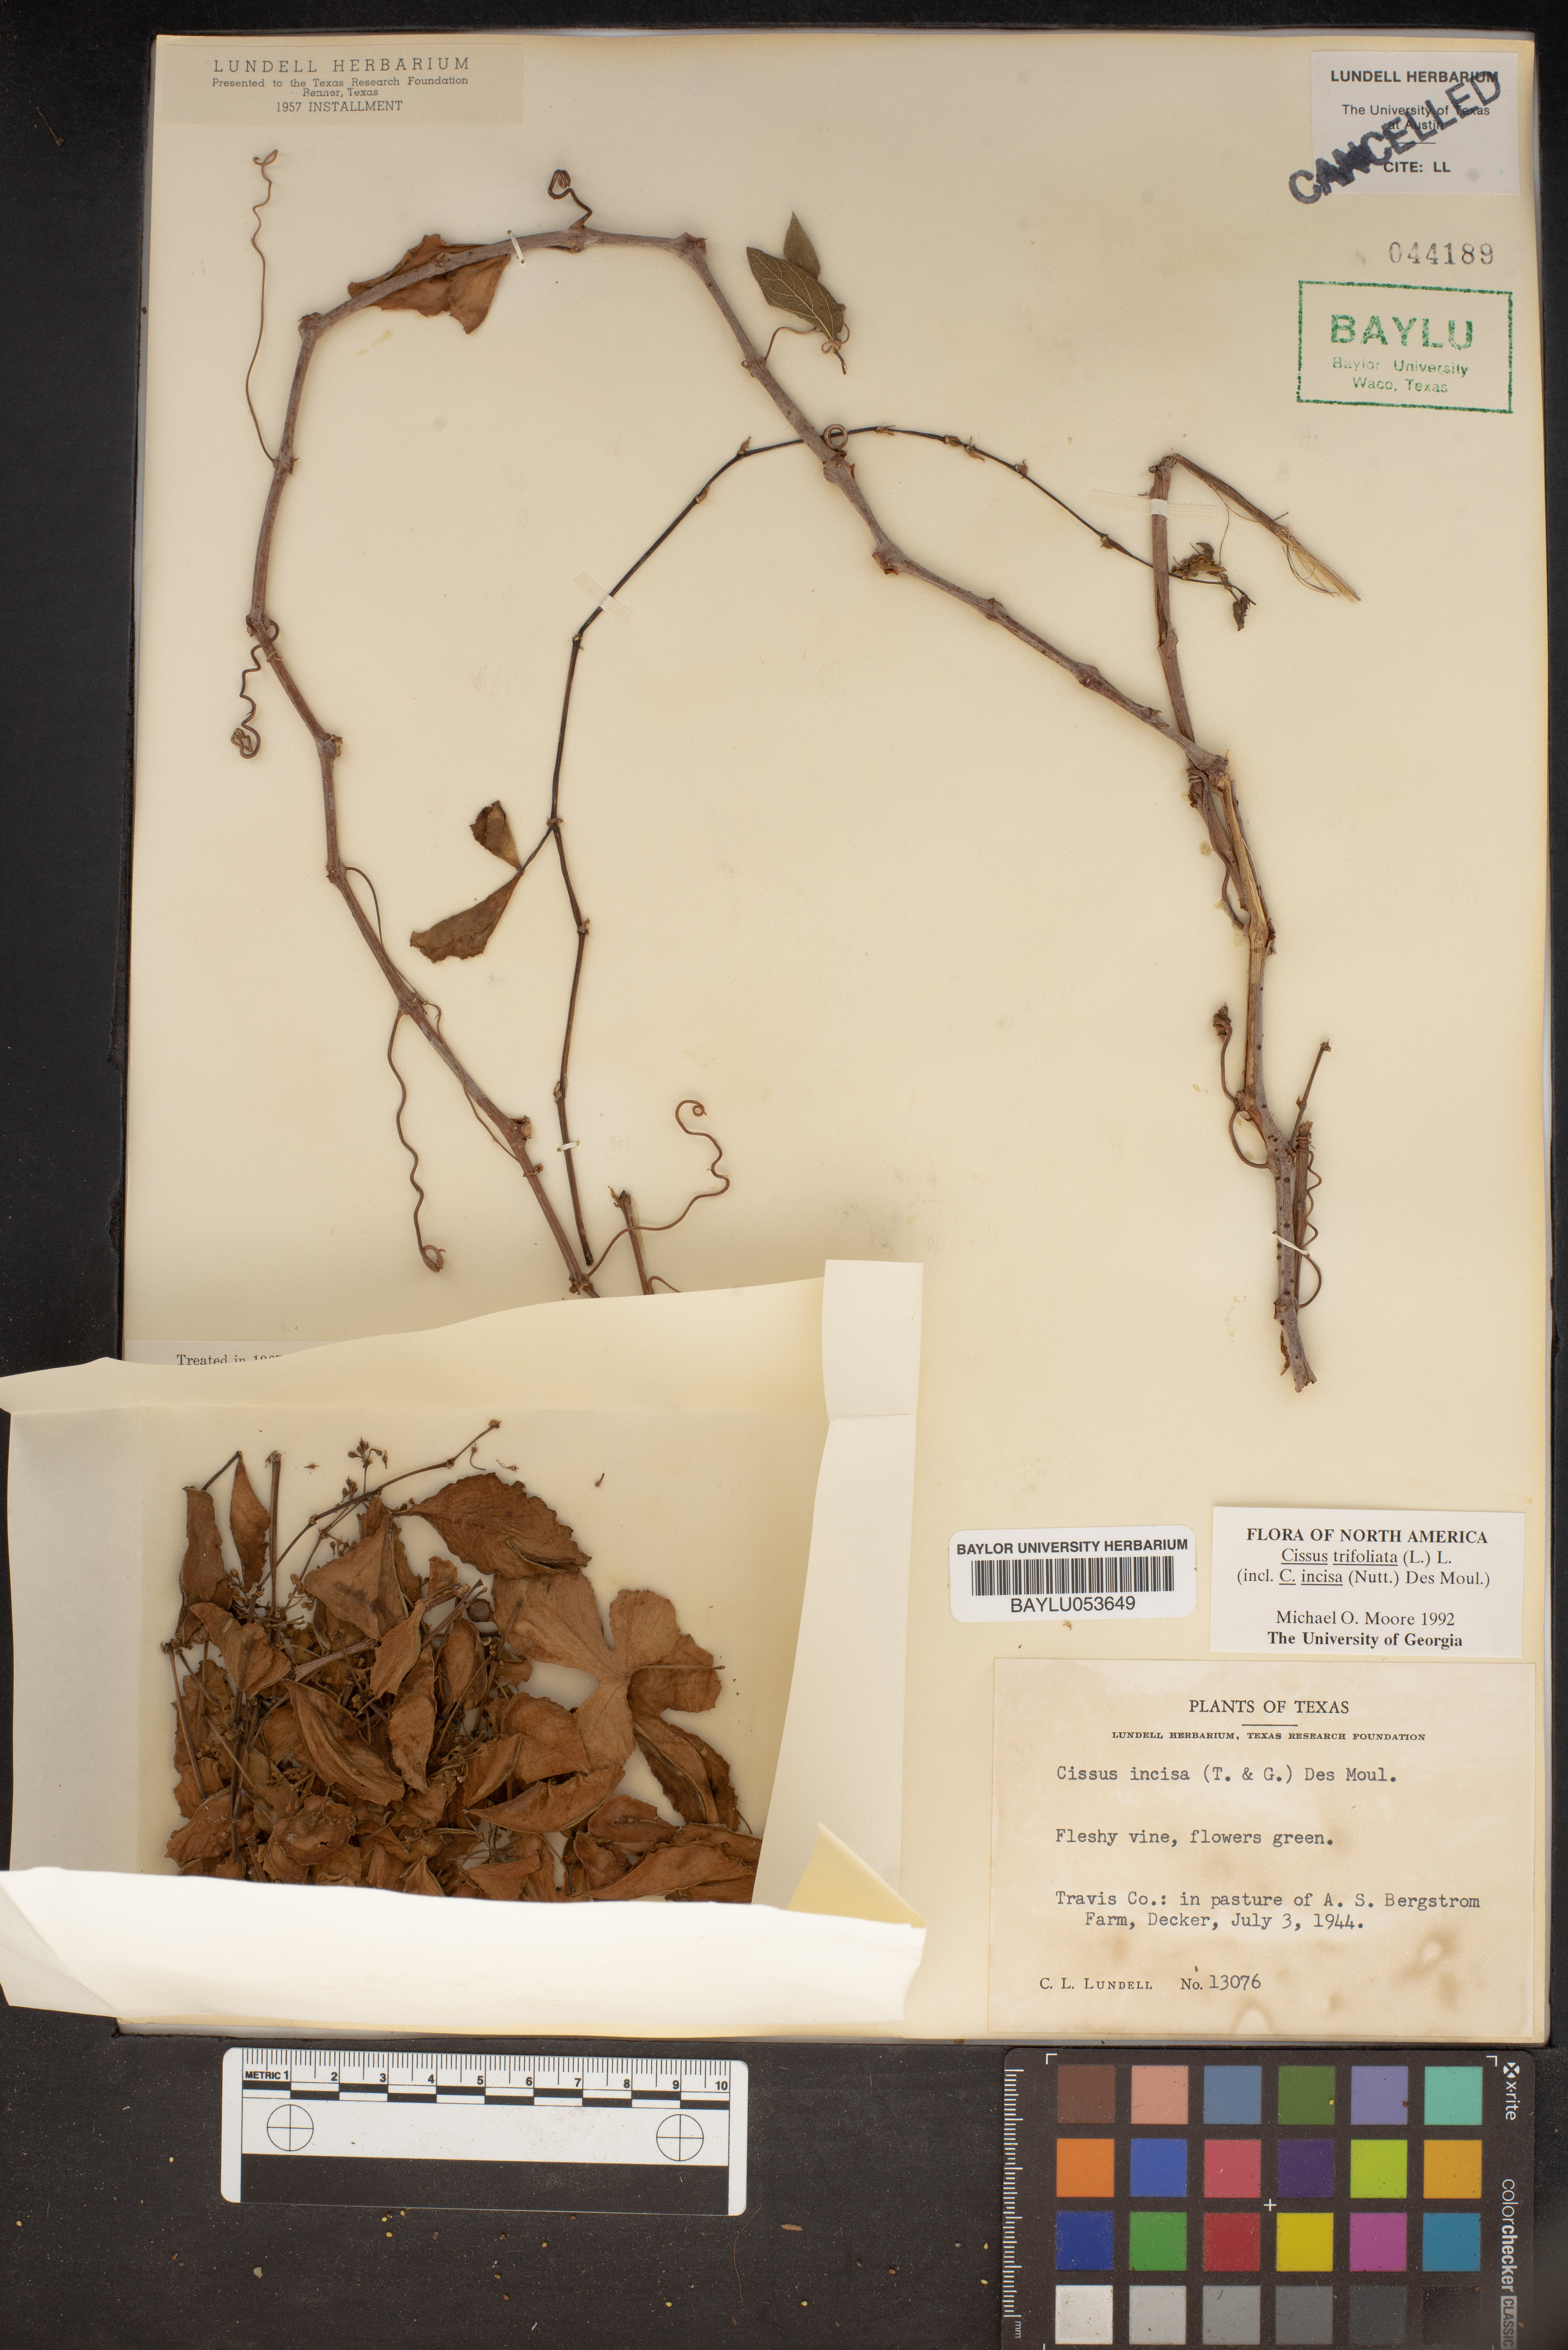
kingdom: Plantae
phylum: Tracheophyta
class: Magnoliopsida
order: Vitales
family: Vitaceae
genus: Cissus
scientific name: Cissus trifoliata
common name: Vine-sorrel
